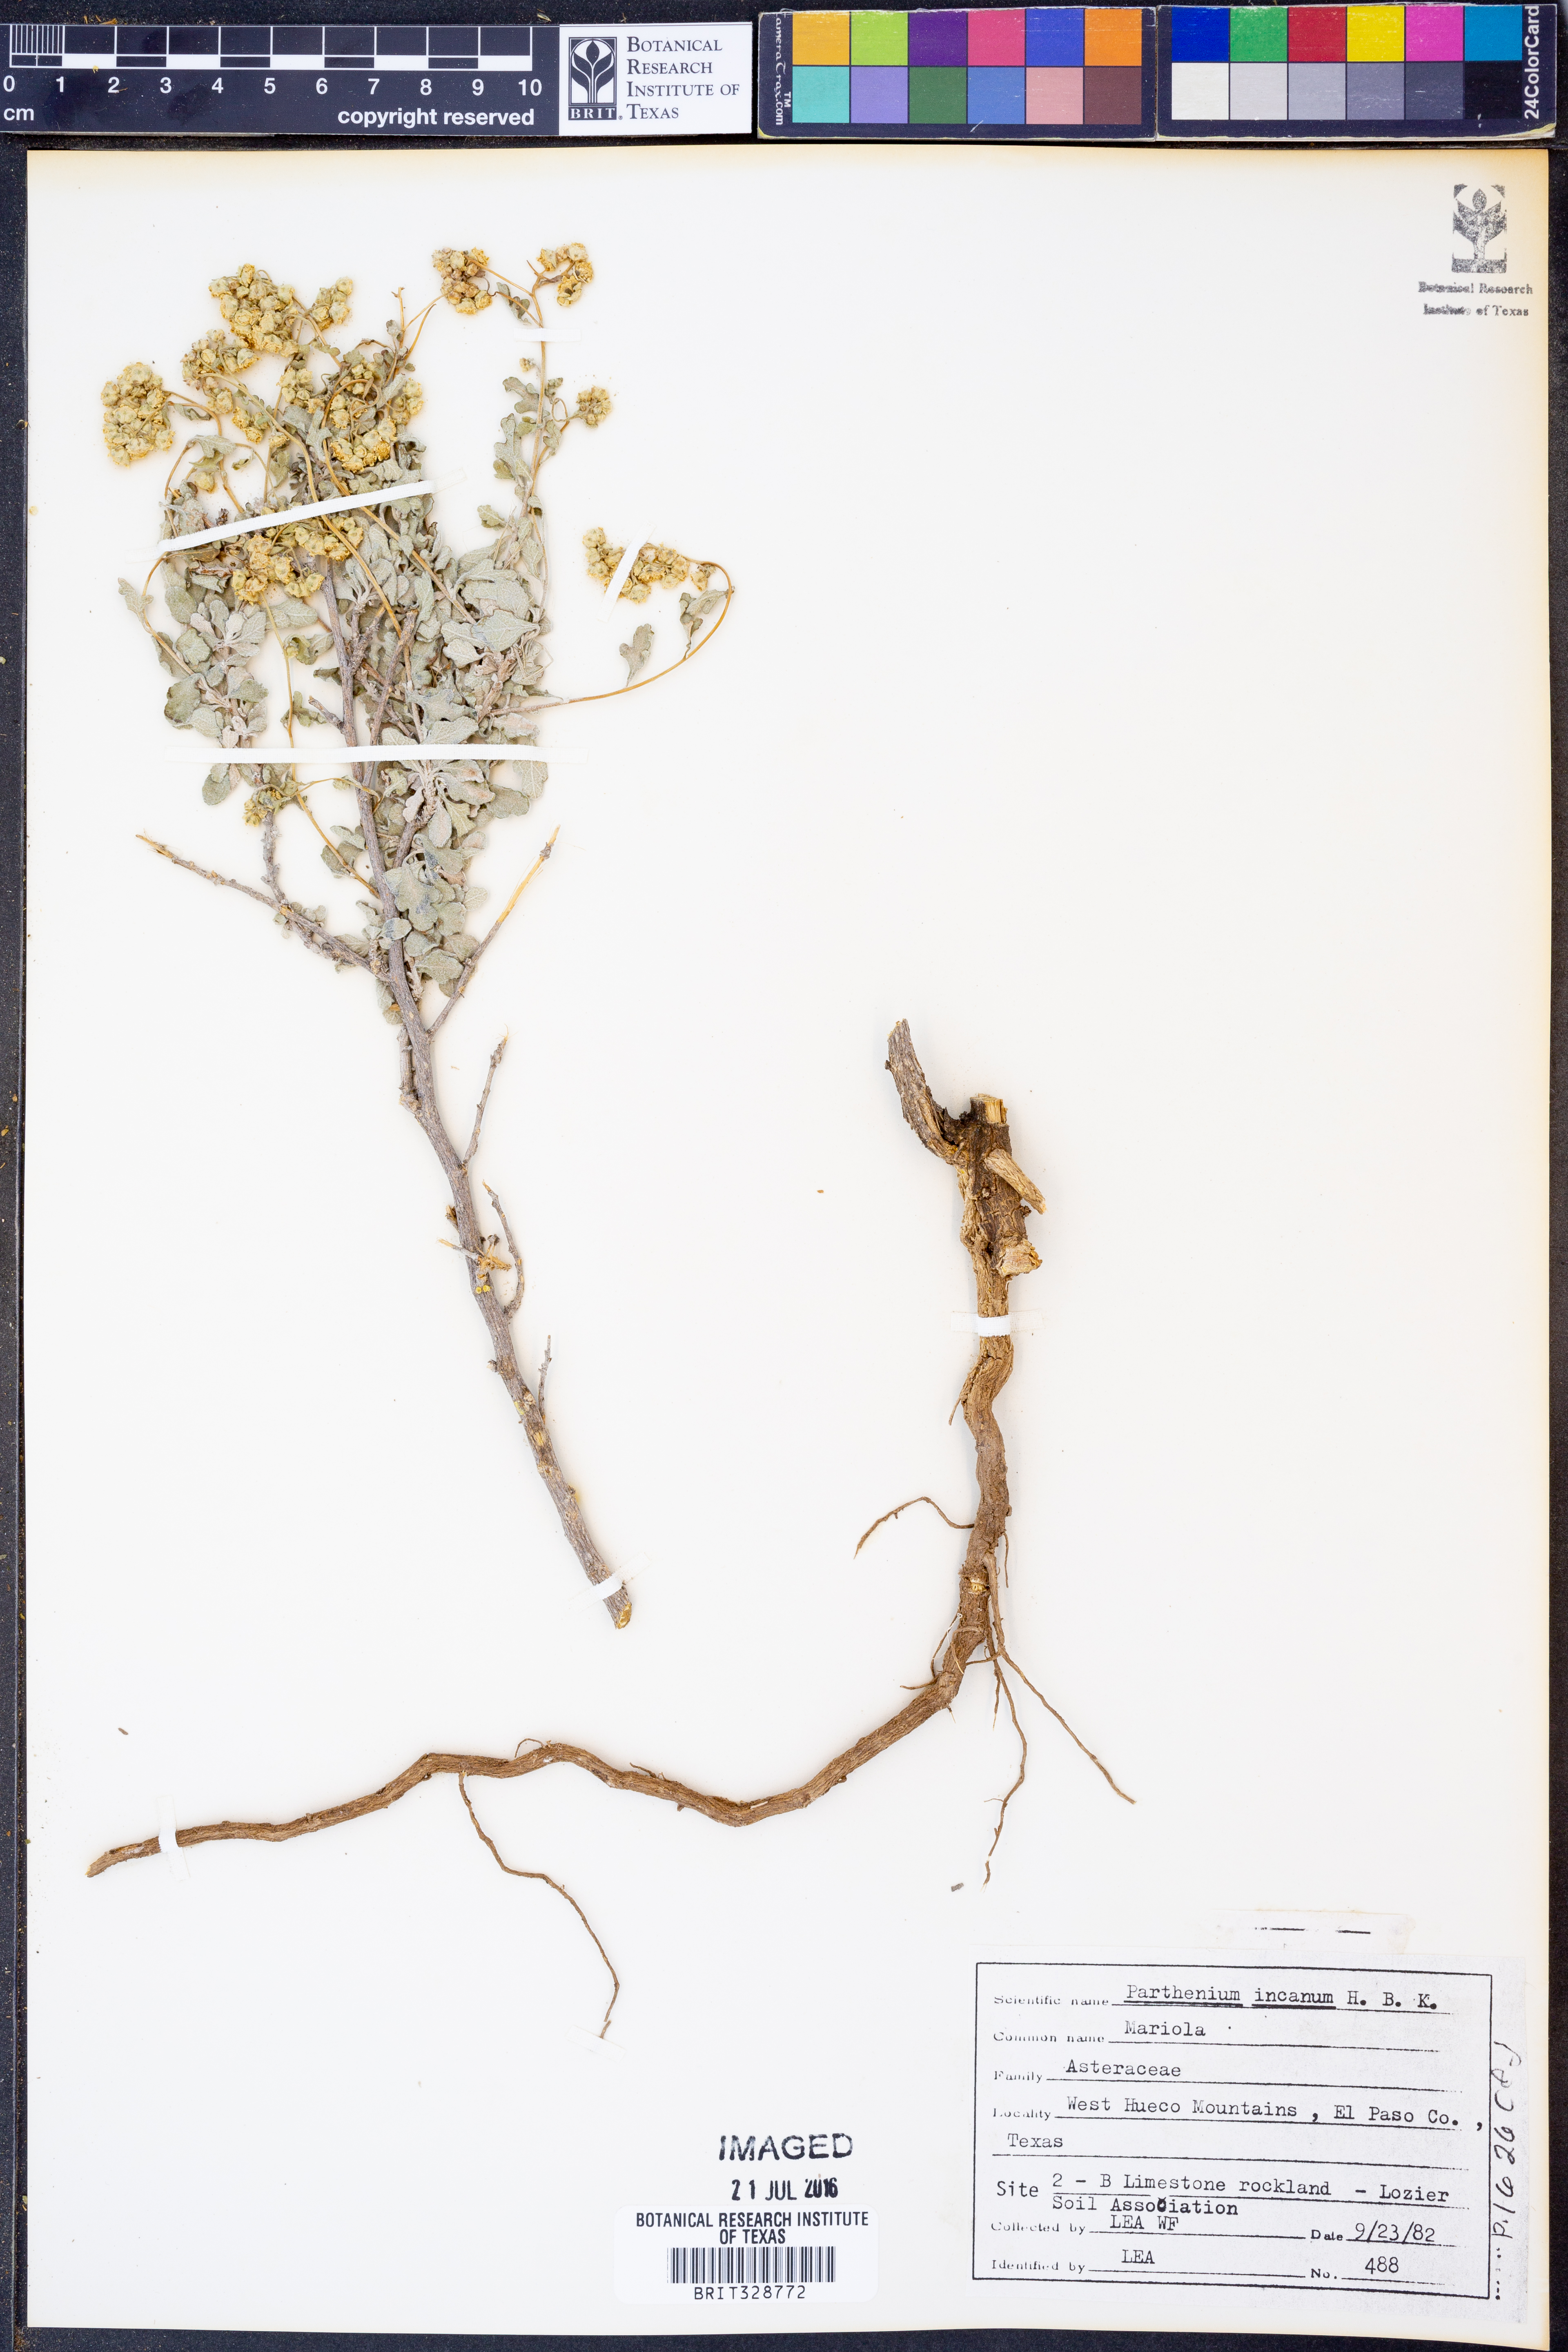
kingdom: Plantae
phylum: Tracheophyta
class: Magnoliopsida
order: Asterales
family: Asteraceae
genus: Parthenium
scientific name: Parthenium incanum
